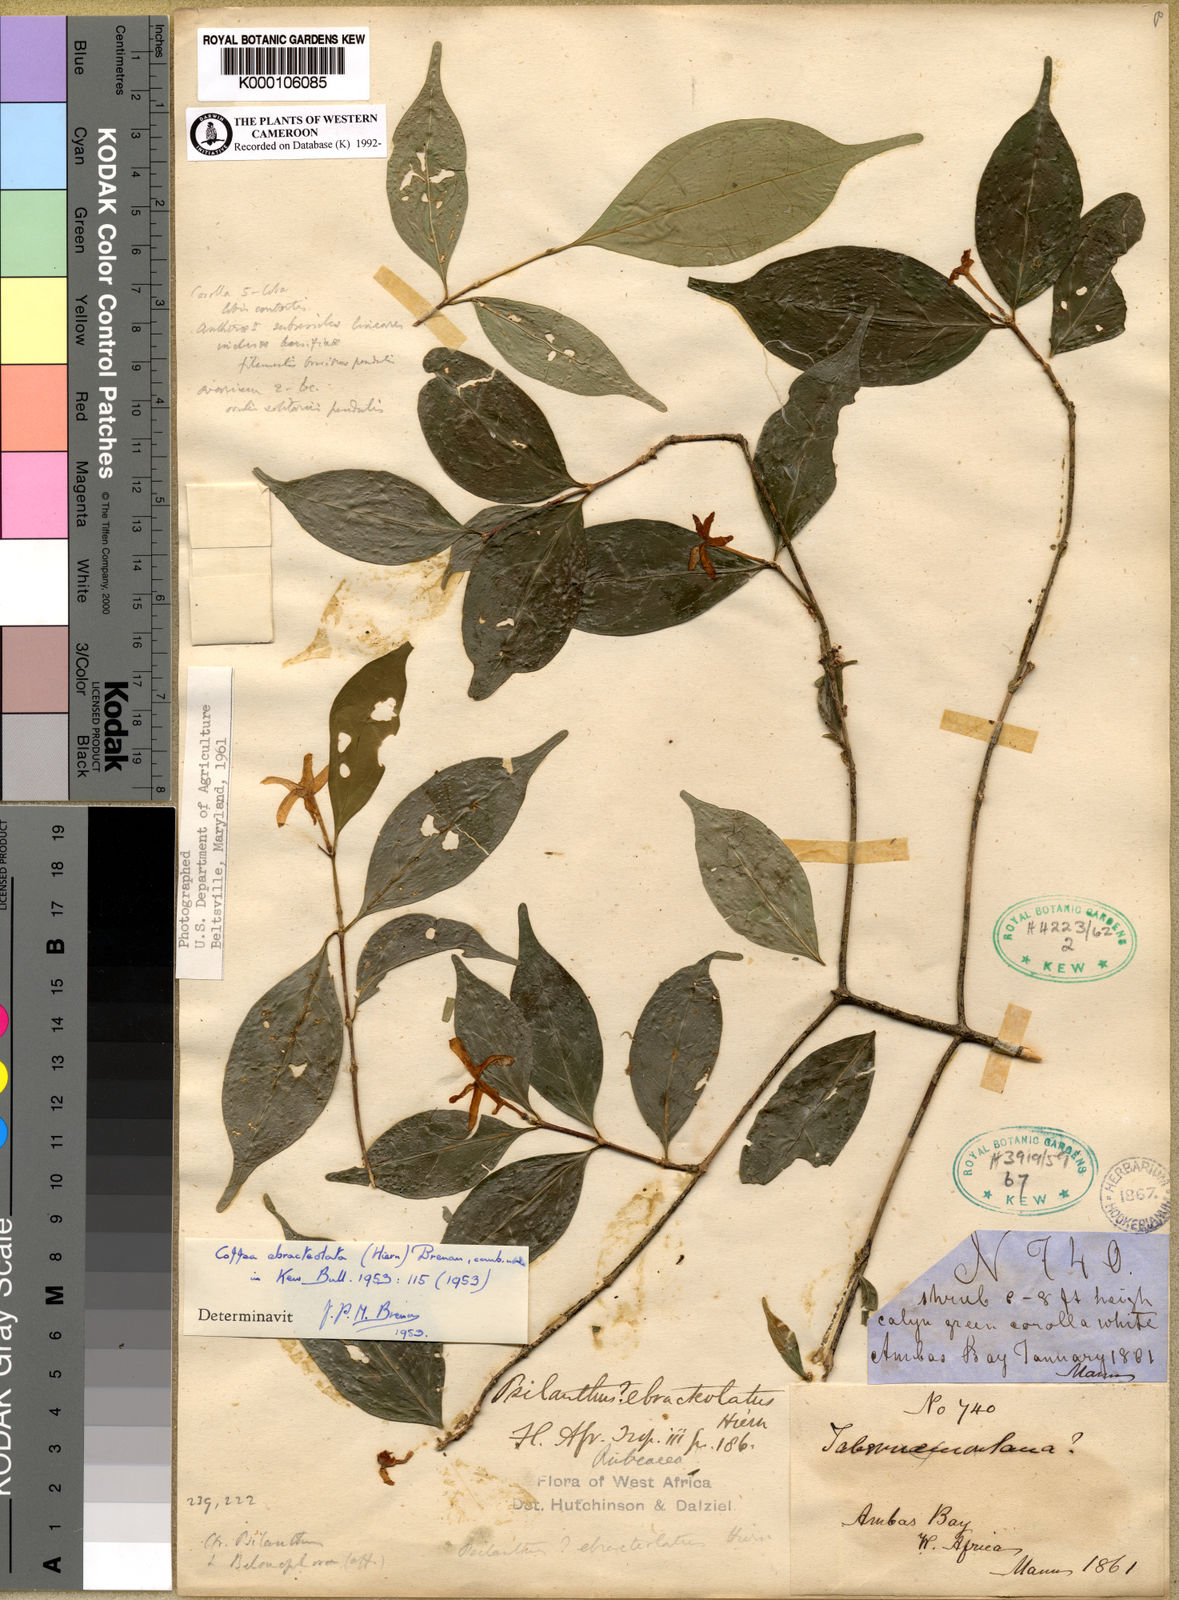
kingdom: Plantae
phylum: Tracheophyta
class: Magnoliopsida
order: Gentianales
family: Rubiaceae
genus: Coffea
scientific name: Coffea ebracteolata
